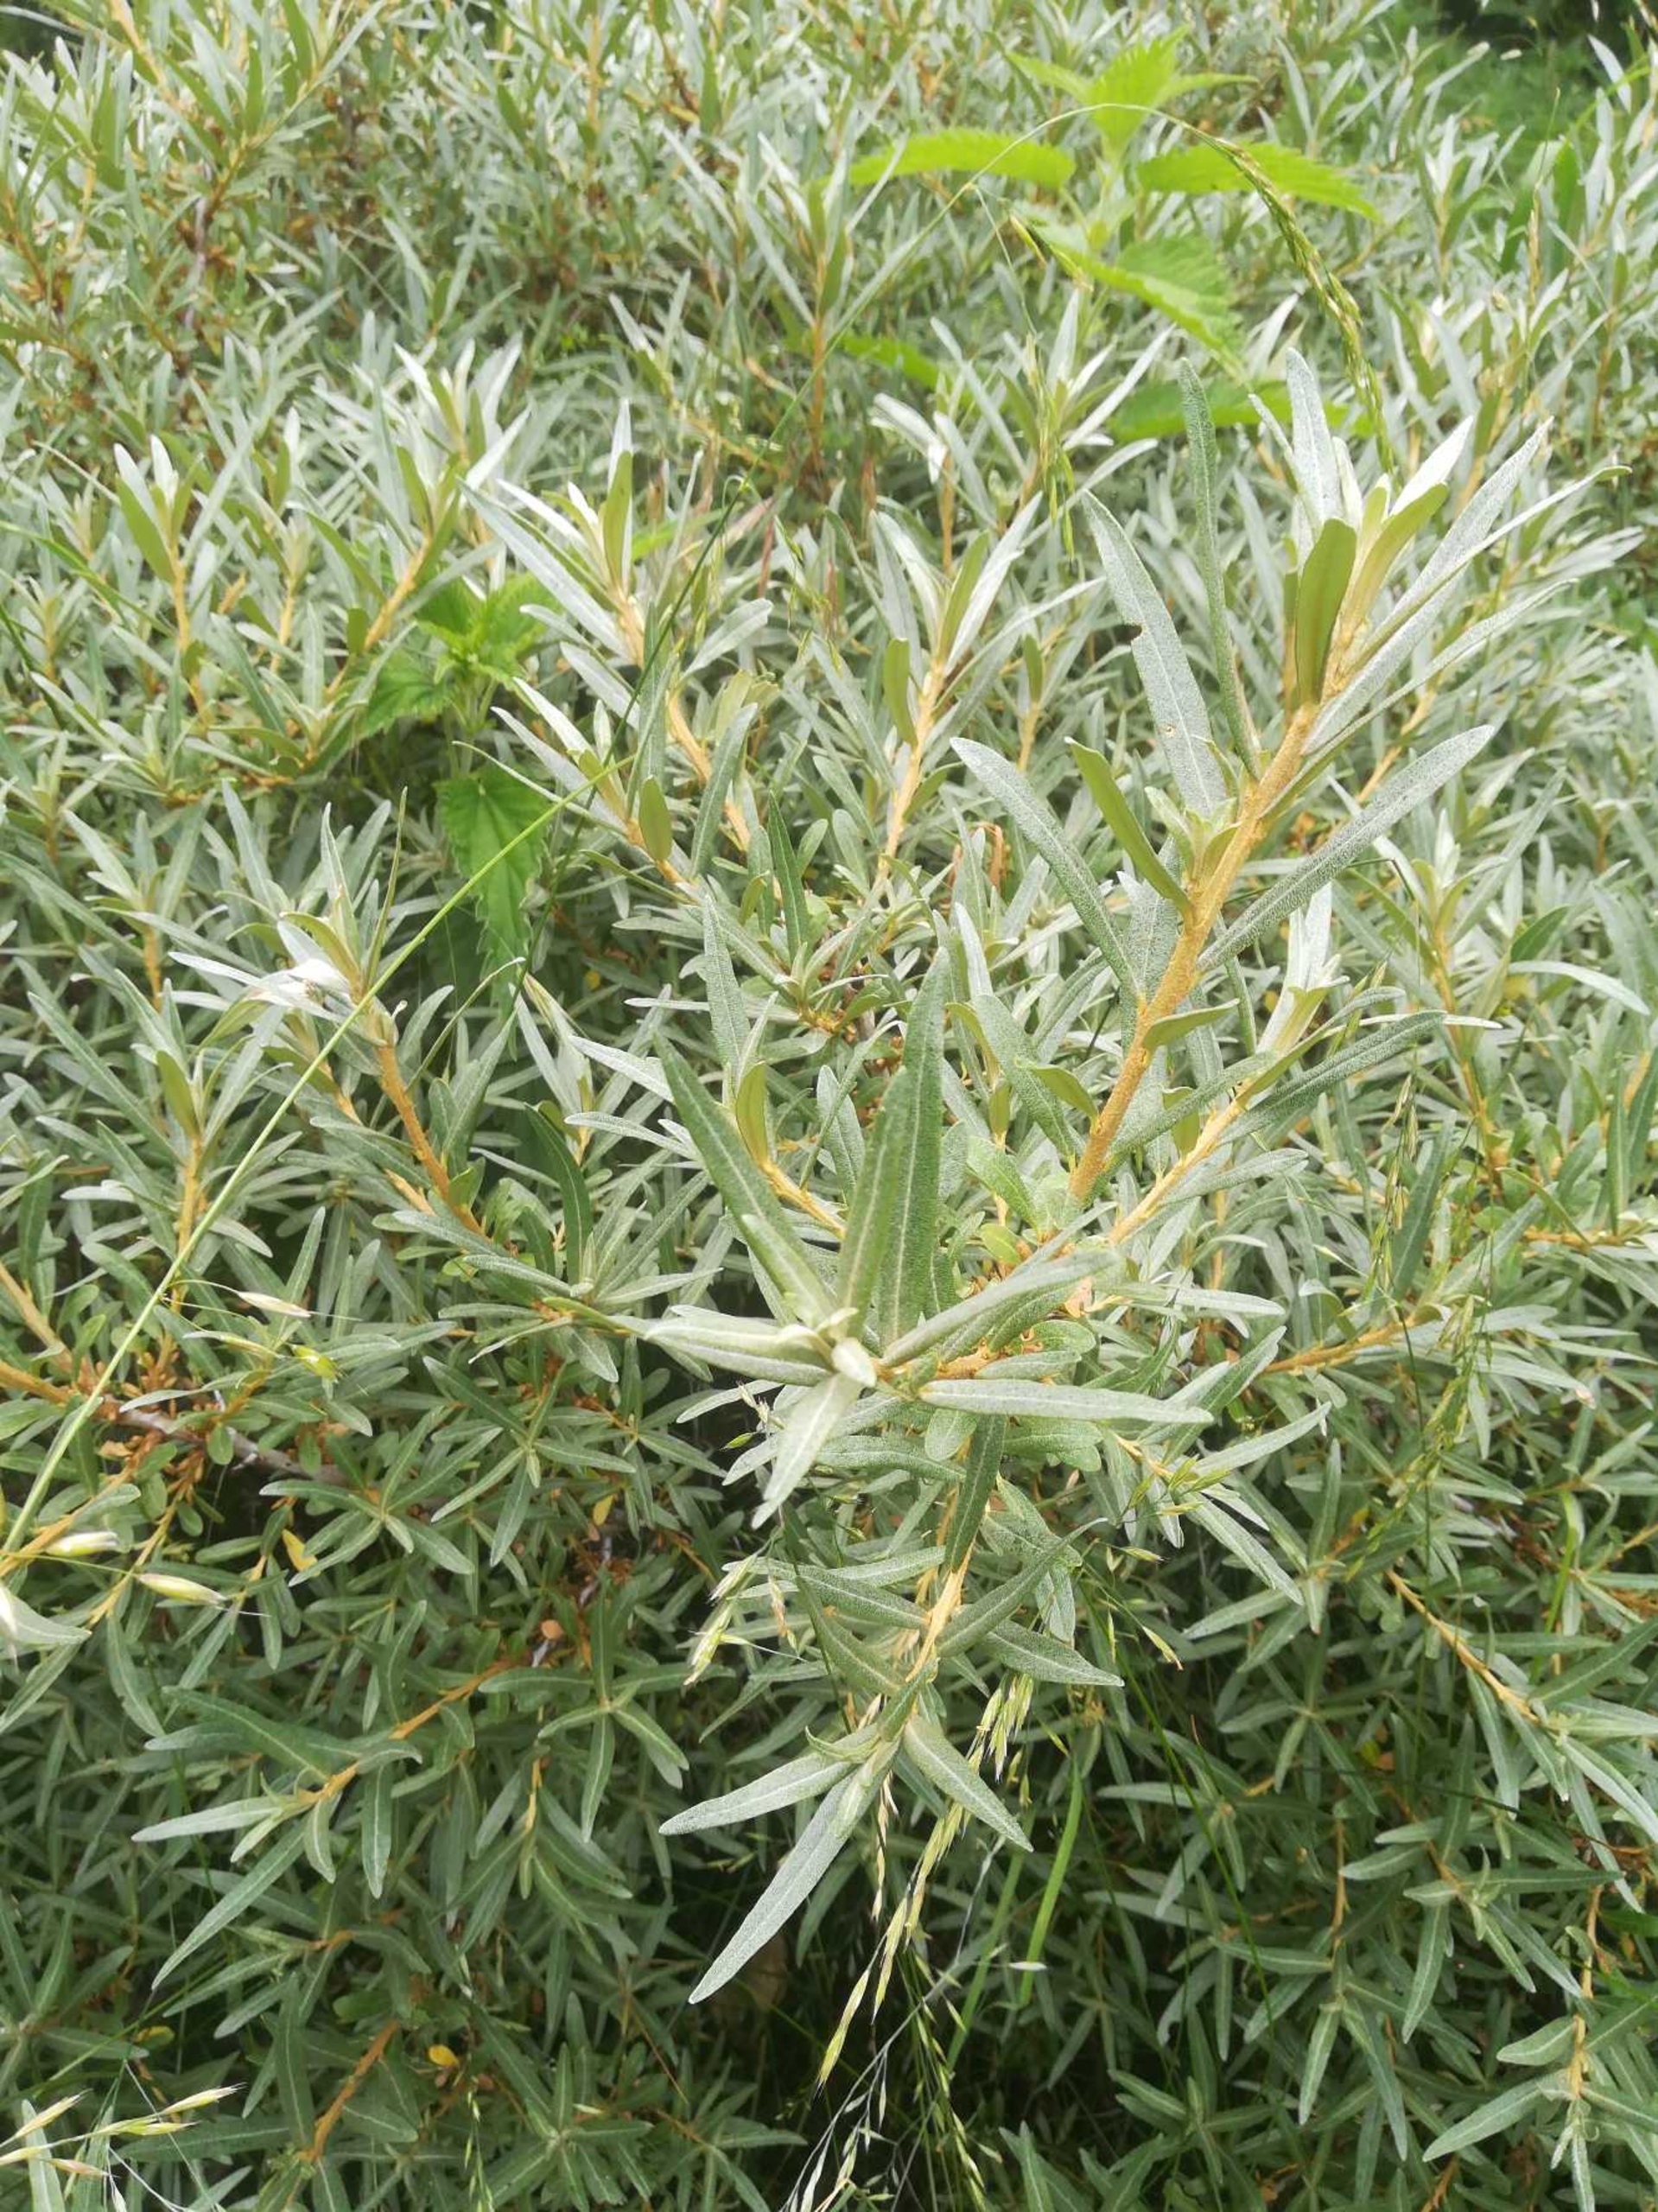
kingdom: Plantae
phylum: Tracheophyta
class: Magnoliopsida
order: Rosales
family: Elaeagnaceae
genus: Hippophae
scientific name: Hippophae rhamnoides
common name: Havtorn
